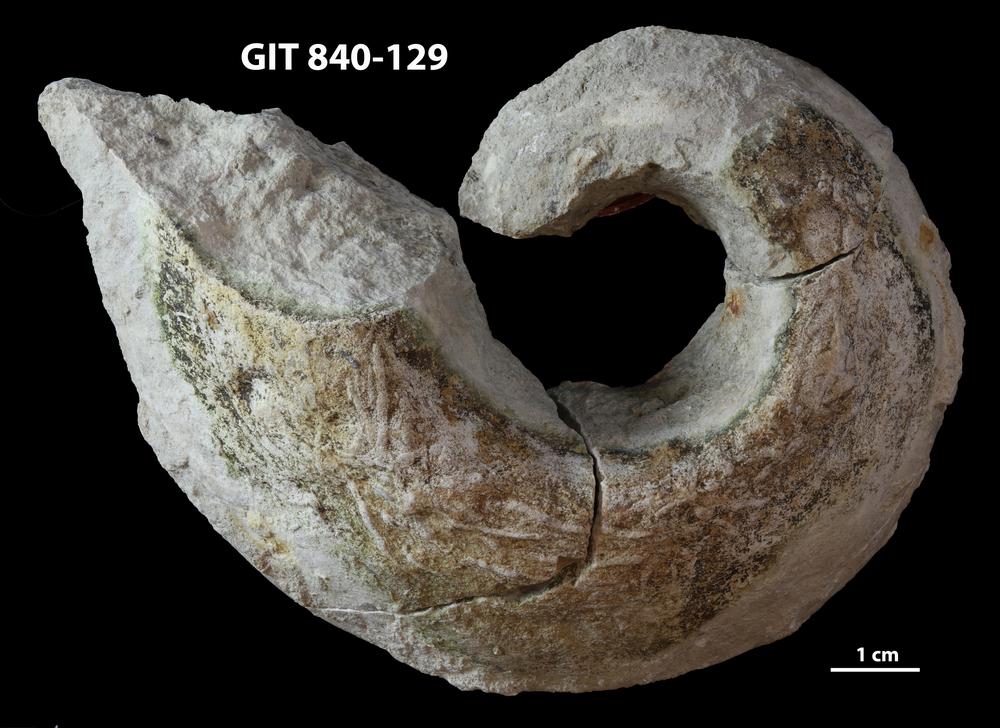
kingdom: Animalia
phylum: Mollusca
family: Macluritidae
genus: Maclurites
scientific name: Maclurites Maclurea neritoides
